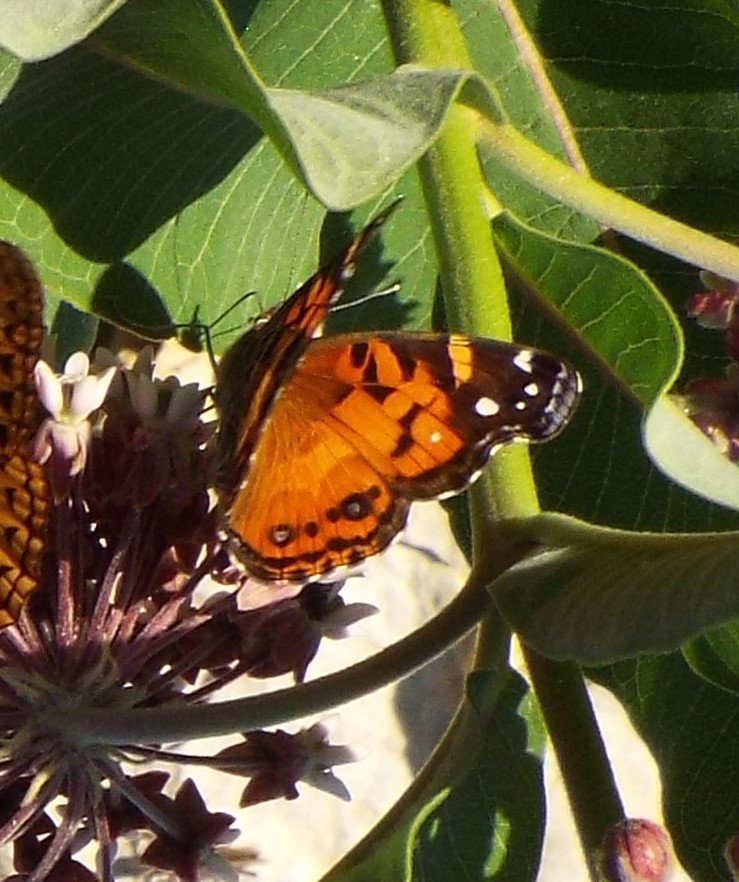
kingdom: Animalia
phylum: Arthropoda
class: Insecta
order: Lepidoptera
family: Nymphalidae
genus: Vanessa
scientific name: Vanessa virginiensis
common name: American Lady
